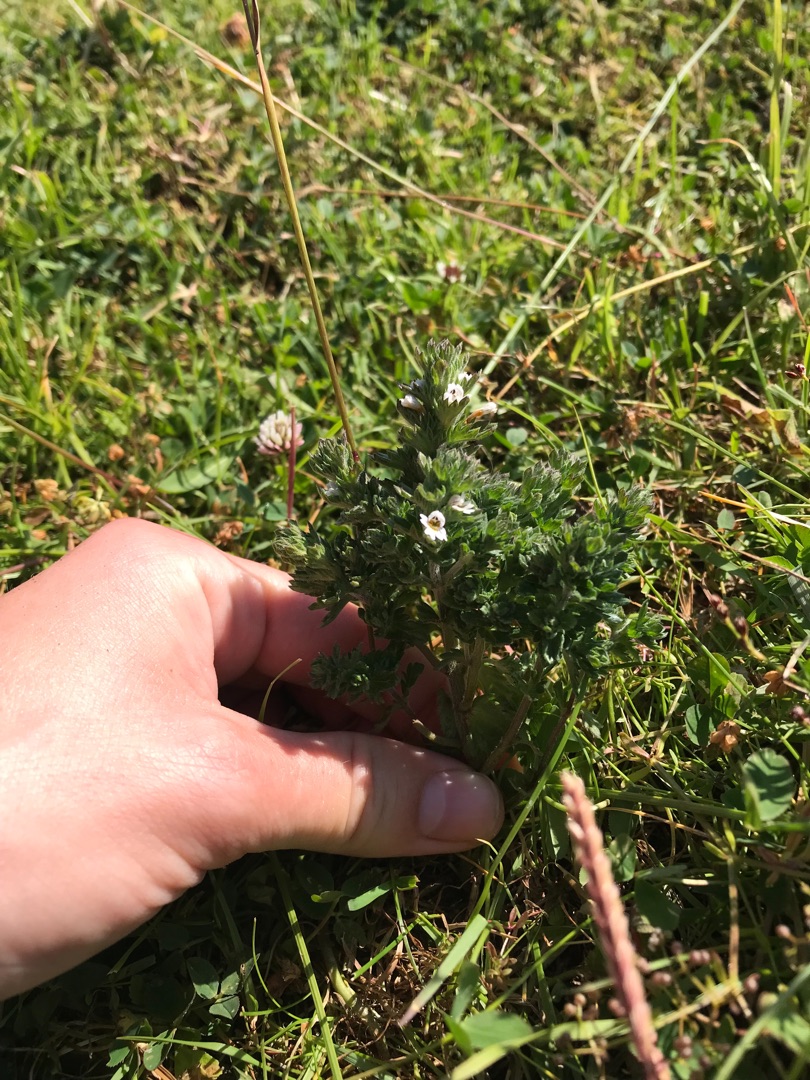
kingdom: Plantae
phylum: Tracheophyta
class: Magnoliopsida
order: Lamiales
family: Orobanchaceae
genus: Euphrasia
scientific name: Euphrasia nemorosa
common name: Kort øjentrøst
